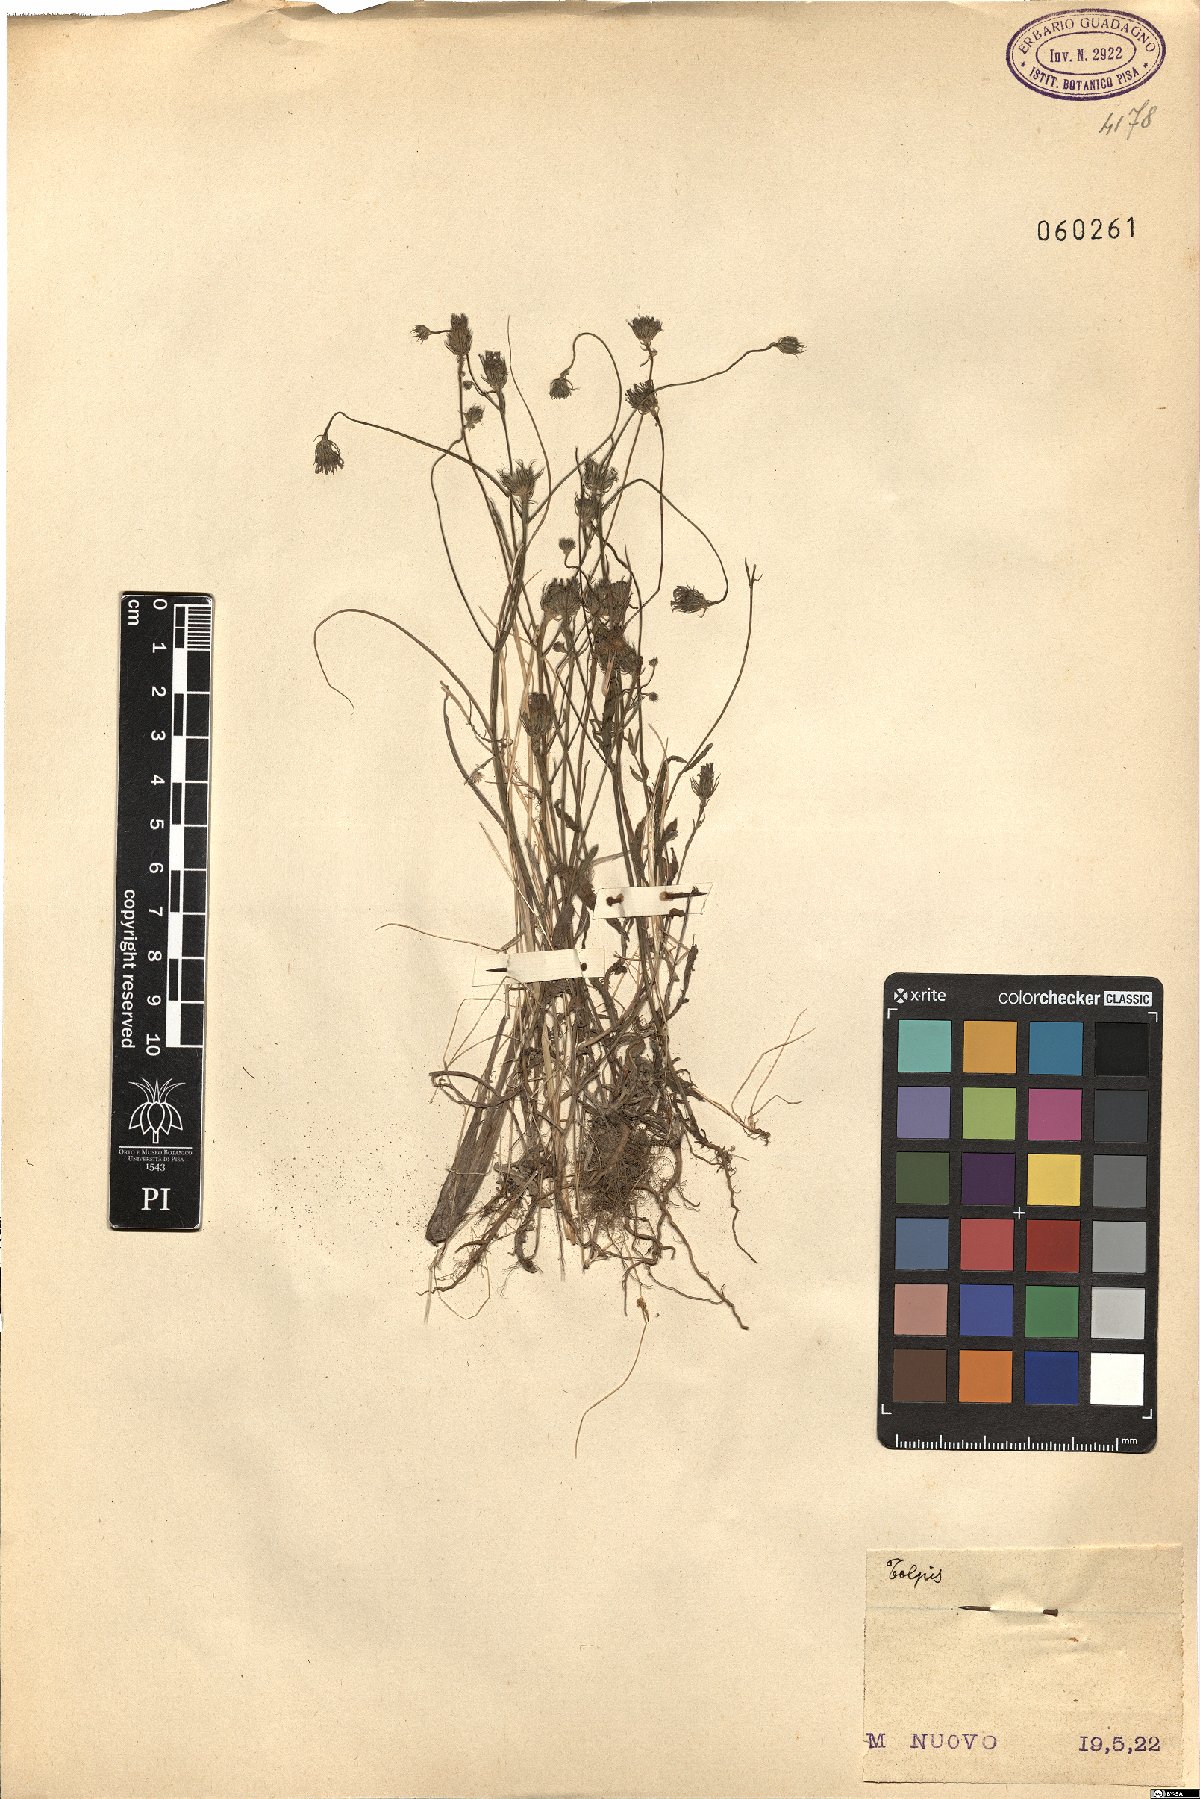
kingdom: Plantae
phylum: Tracheophyta
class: Magnoliopsida
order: Asterales
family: Asteraceae
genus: Tolpis
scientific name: Tolpis
